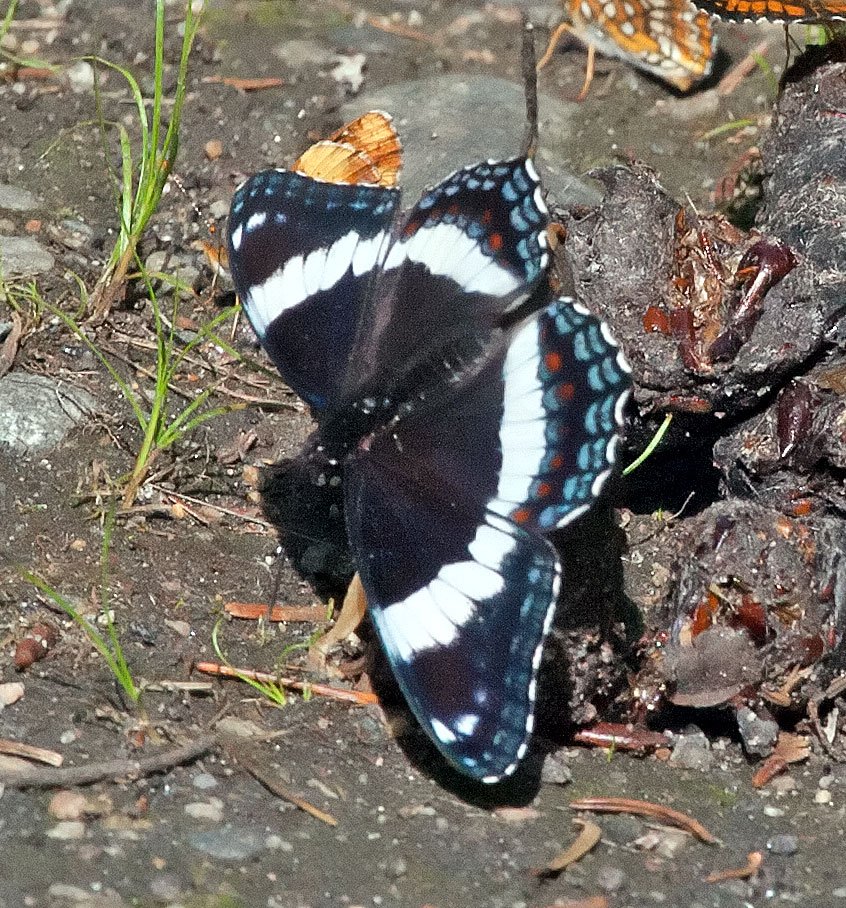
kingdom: Animalia
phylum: Arthropoda
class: Insecta
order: Lepidoptera
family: Nymphalidae
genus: Limenitis
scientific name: Limenitis arthemis
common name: Red-spotted Admiral
